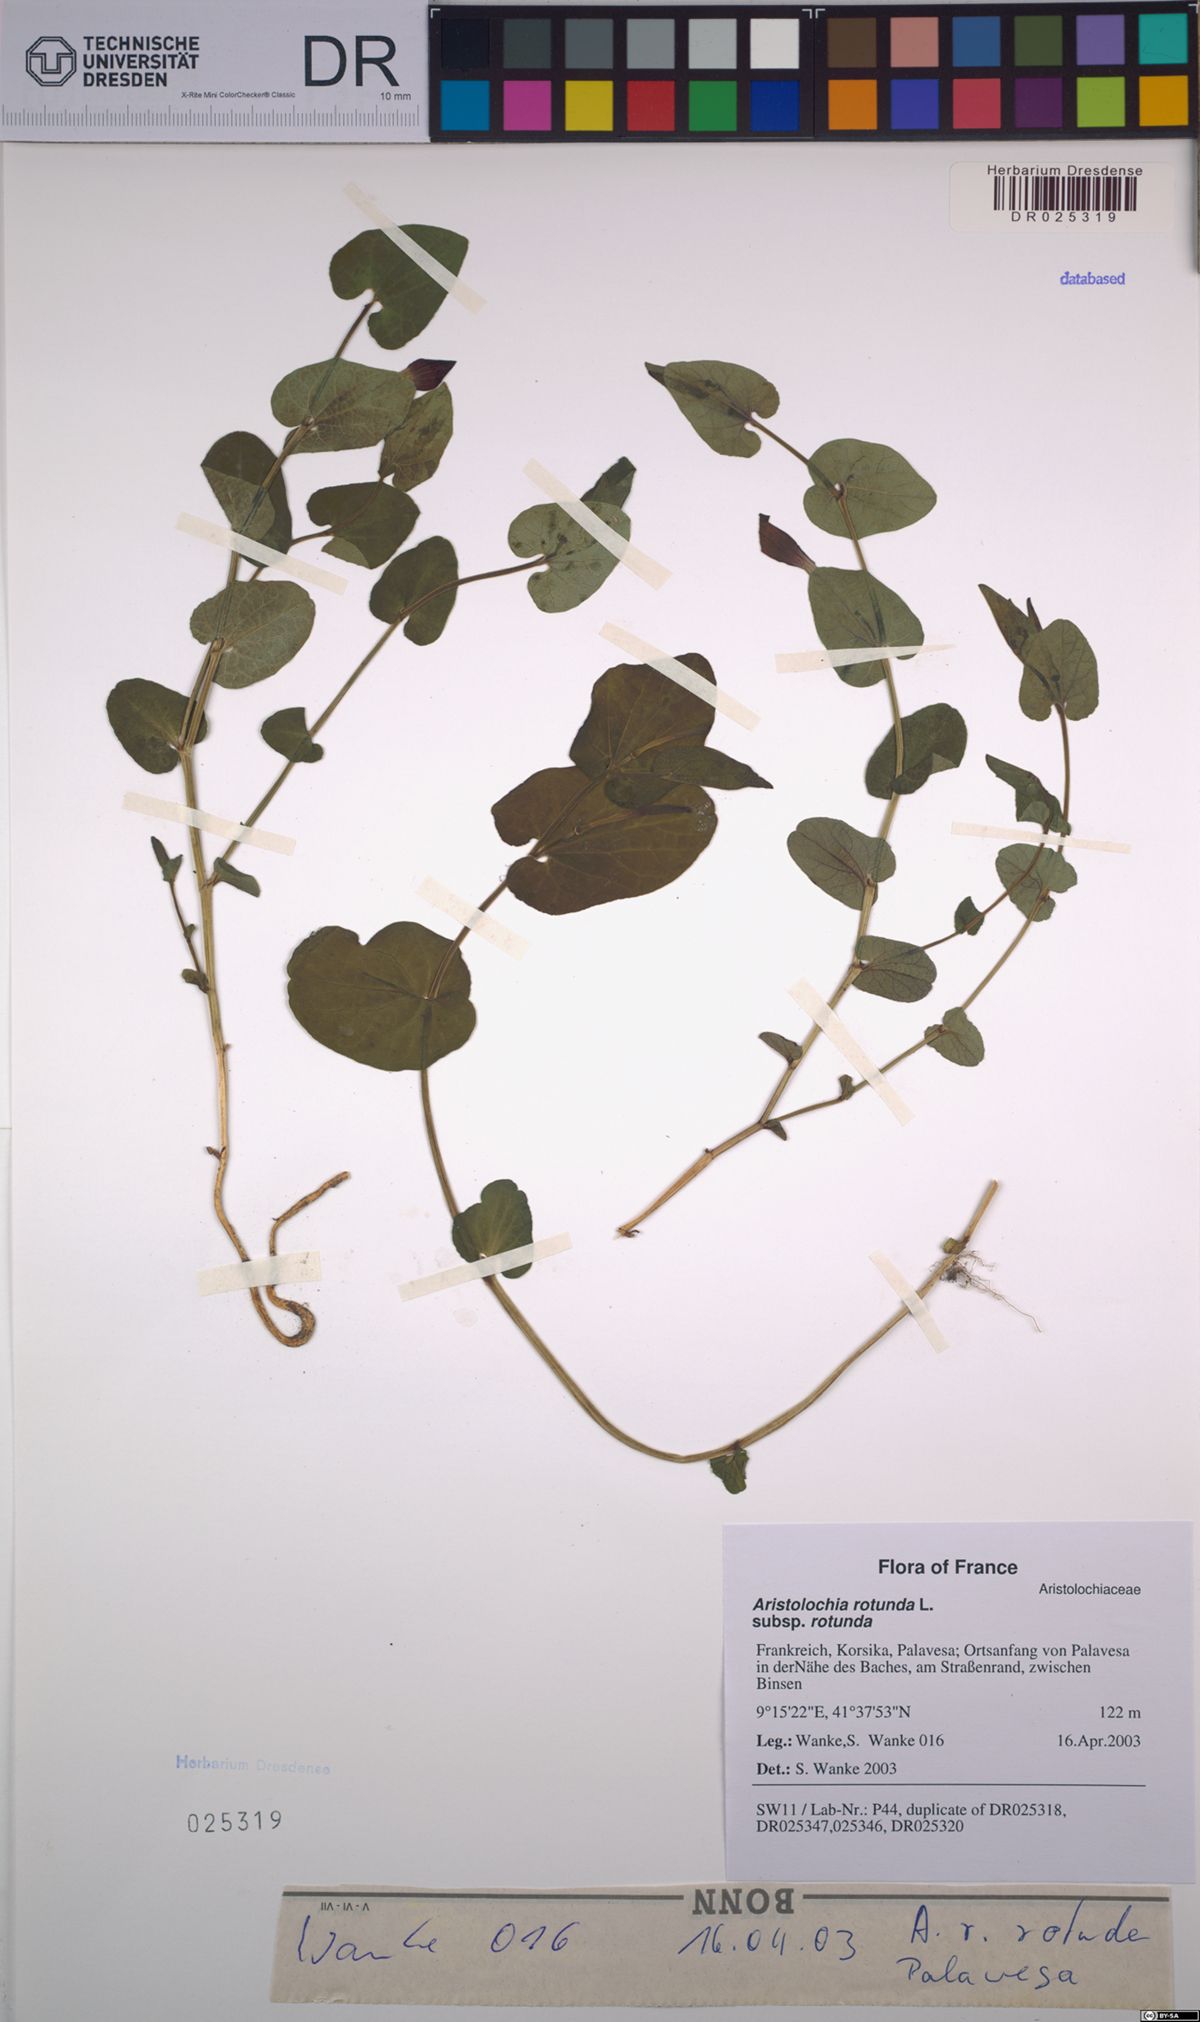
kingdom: Plantae
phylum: Tracheophyta
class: Magnoliopsida
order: Piperales
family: Aristolochiaceae
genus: Aristolochia
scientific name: Aristolochia rotunda
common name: Smearwort
